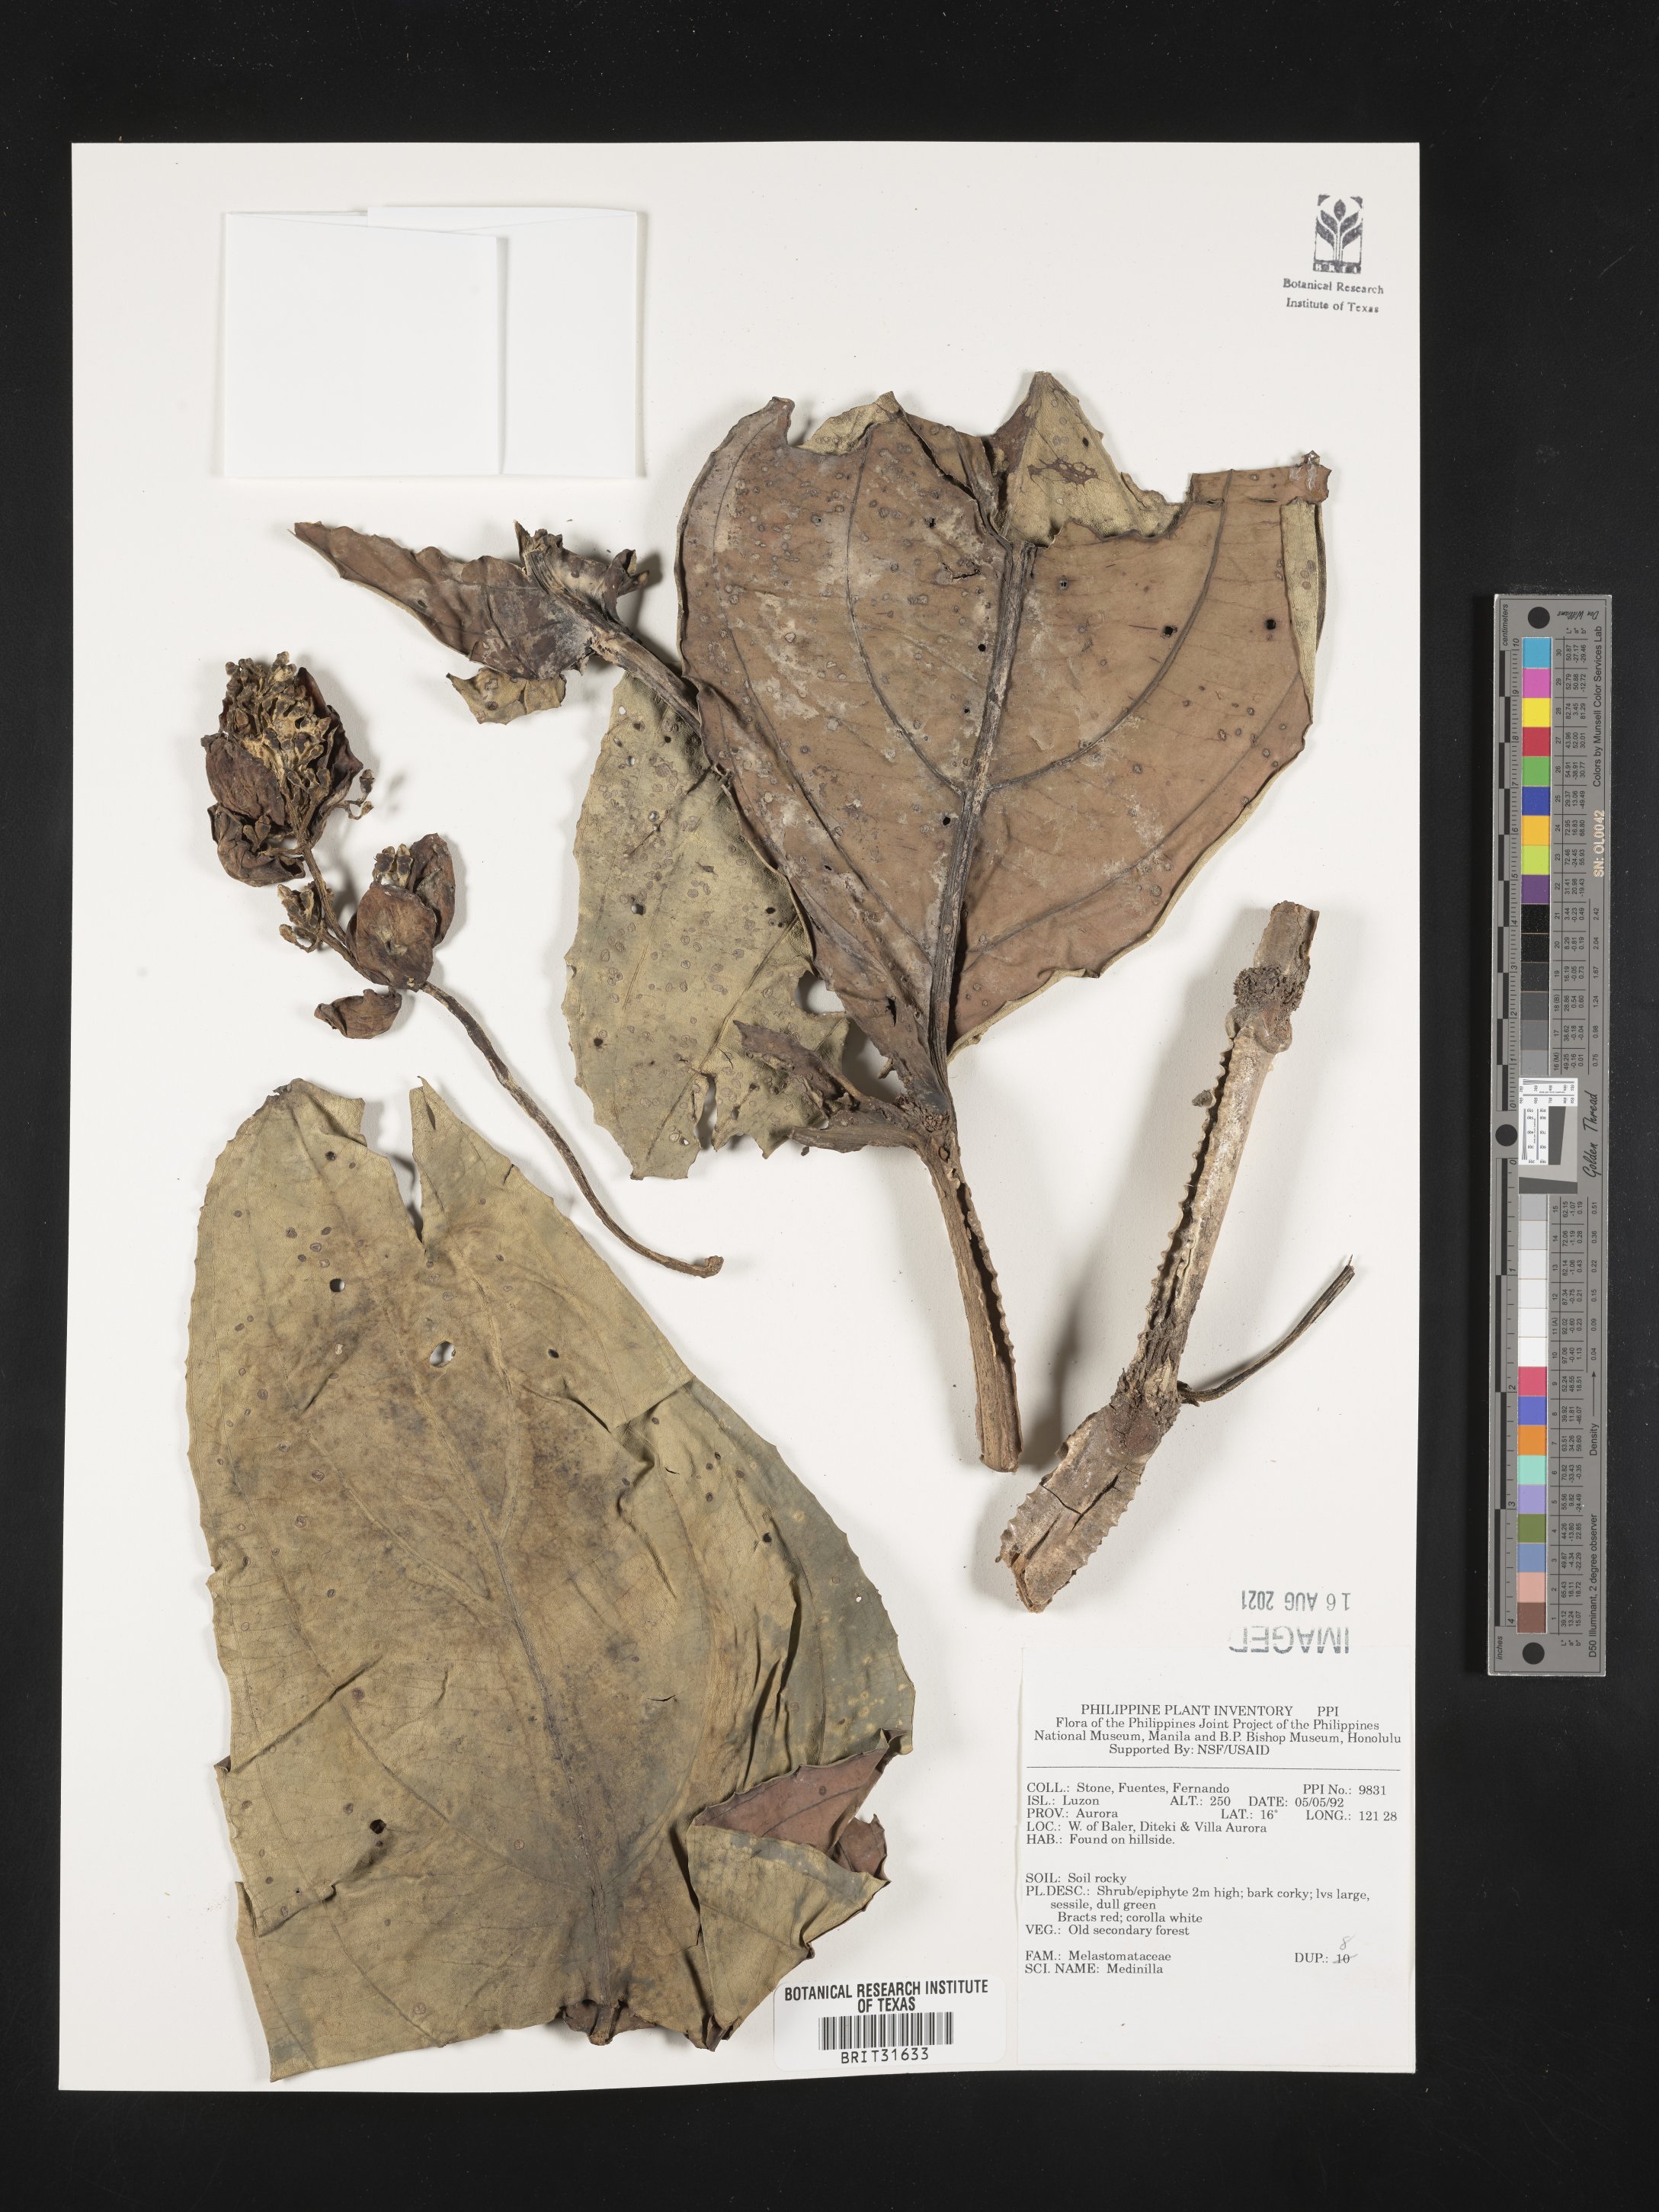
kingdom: Plantae
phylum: Tracheophyta
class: Magnoliopsida
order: Myrtales
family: Melastomataceae
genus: Medinilla
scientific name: Medinilla
